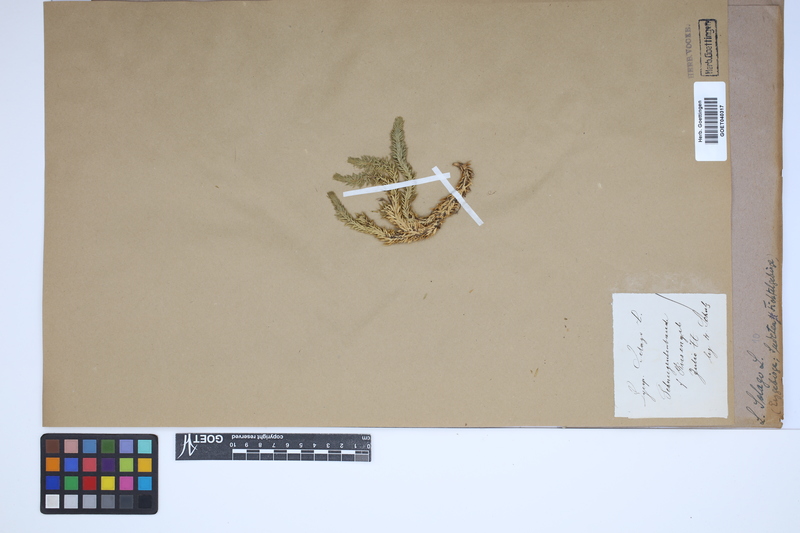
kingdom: Plantae
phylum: Tracheophyta
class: Lycopodiopsida
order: Lycopodiales
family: Lycopodiaceae
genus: Huperzia
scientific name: Huperzia selago
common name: Northern firmoss
